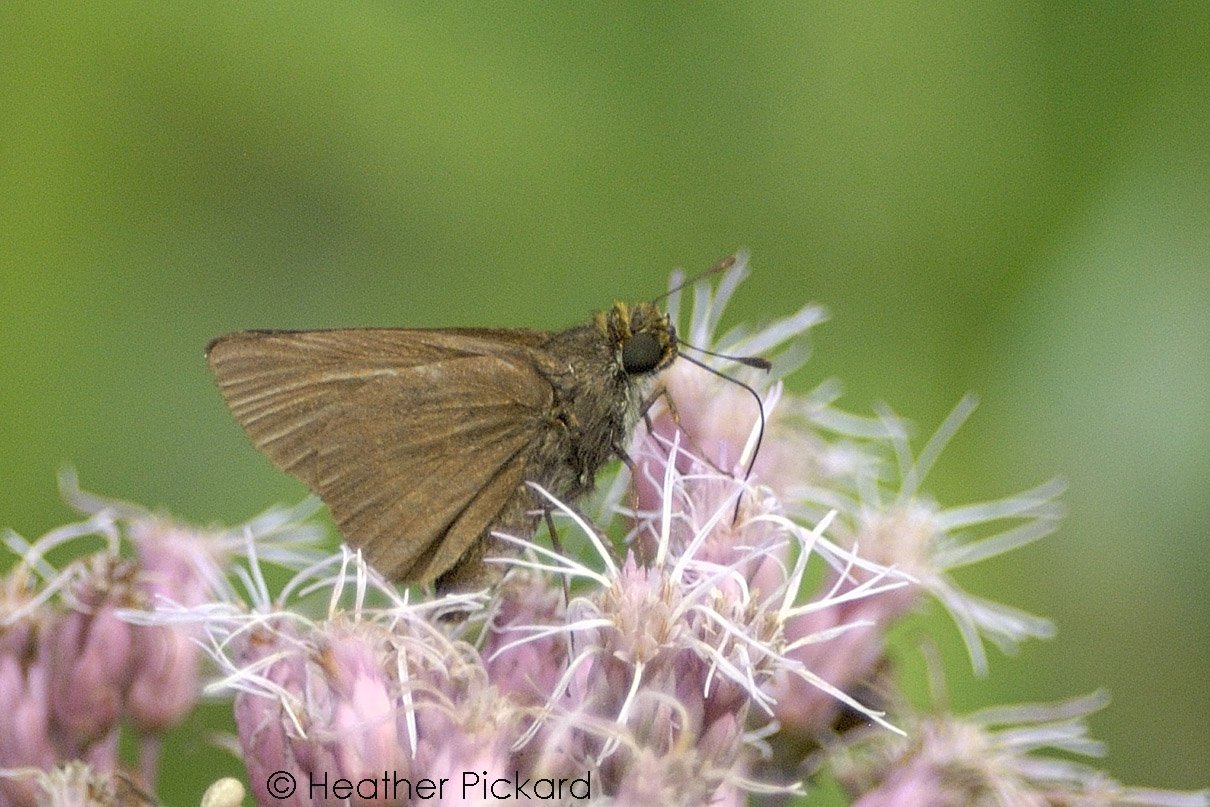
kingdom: Animalia
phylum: Arthropoda
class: Insecta
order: Lepidoptera
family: Hesperiidae
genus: Euphyes
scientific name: Euphyes vestris
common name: Dun Skipper
